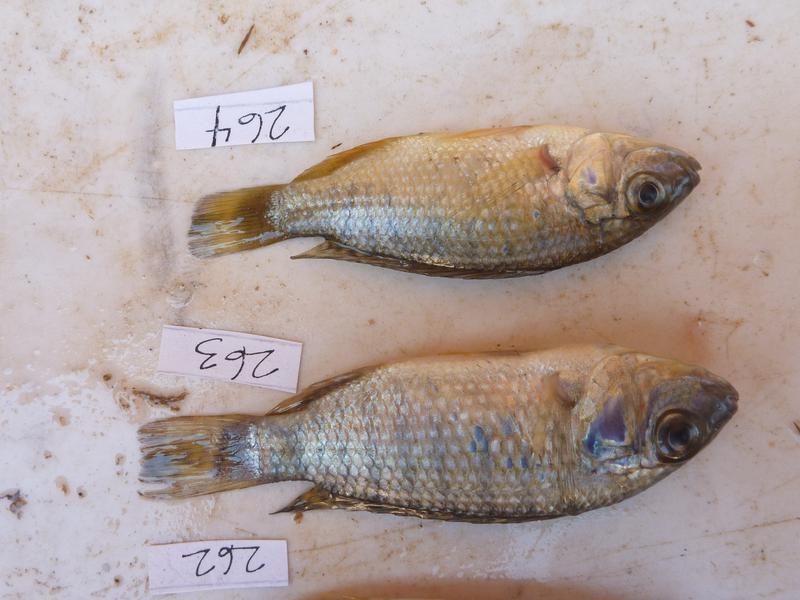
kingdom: Animalia
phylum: Chordata
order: Perciformes
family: Cichlidae
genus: Oreochromis
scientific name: Oreochromis
